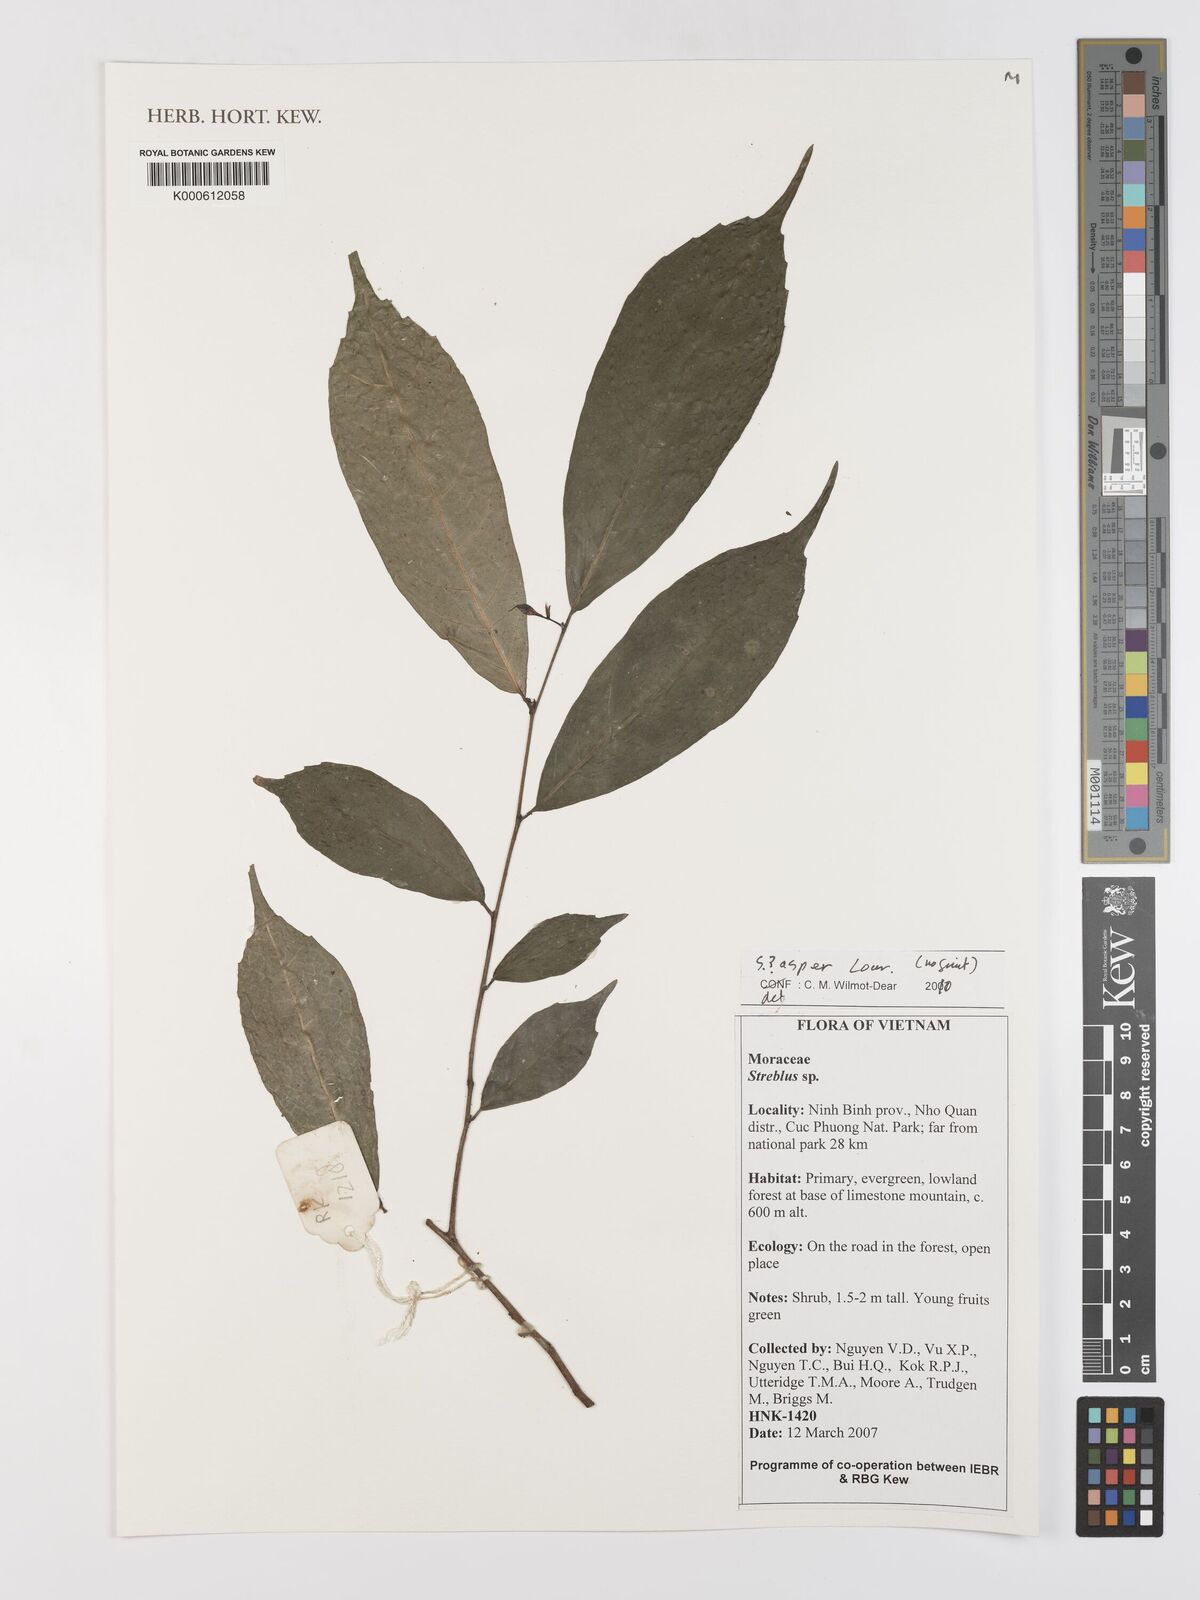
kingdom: Plantae
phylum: Tracheophyta
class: Magnoliopsida
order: Rosales
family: Moraceae
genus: Streblus
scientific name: Streblus asper
